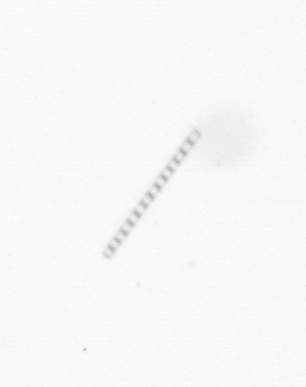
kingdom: Chromista
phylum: Ochrophyta
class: Bacillariophyceae
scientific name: Bacillariophyceae
